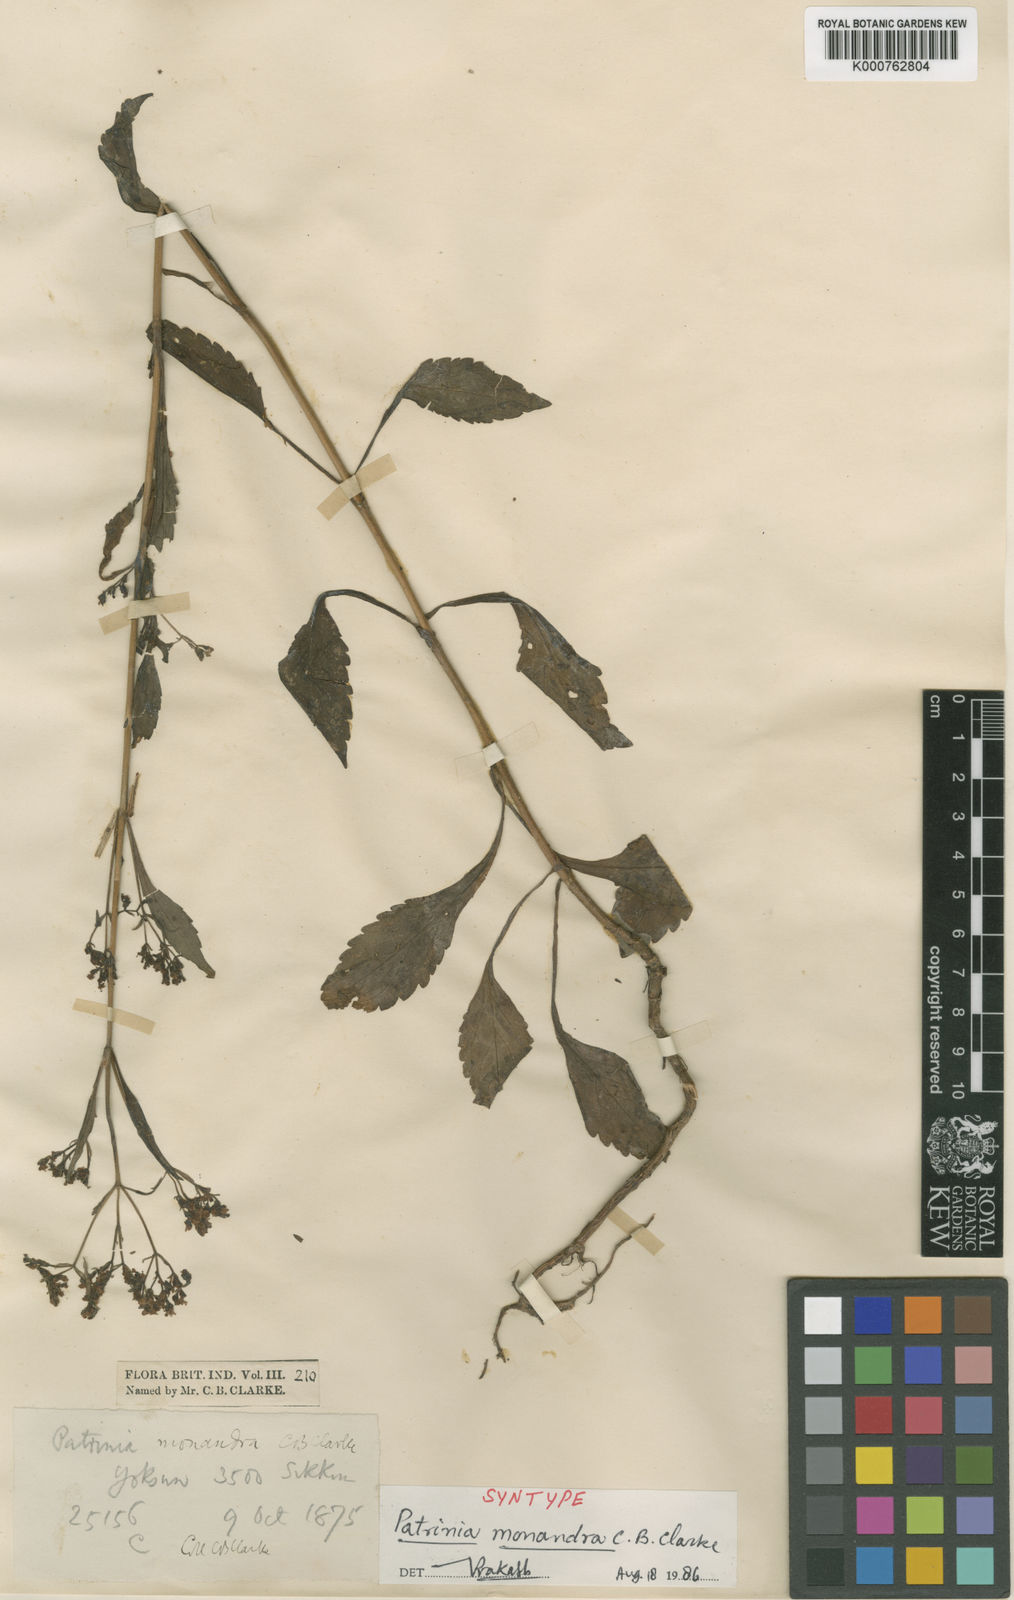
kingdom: Plantae
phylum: Tracheophyta
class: Magnoliopsida
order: Dipsacales
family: Caprifoliaceae
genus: Patrinia
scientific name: Patrinia monandra
